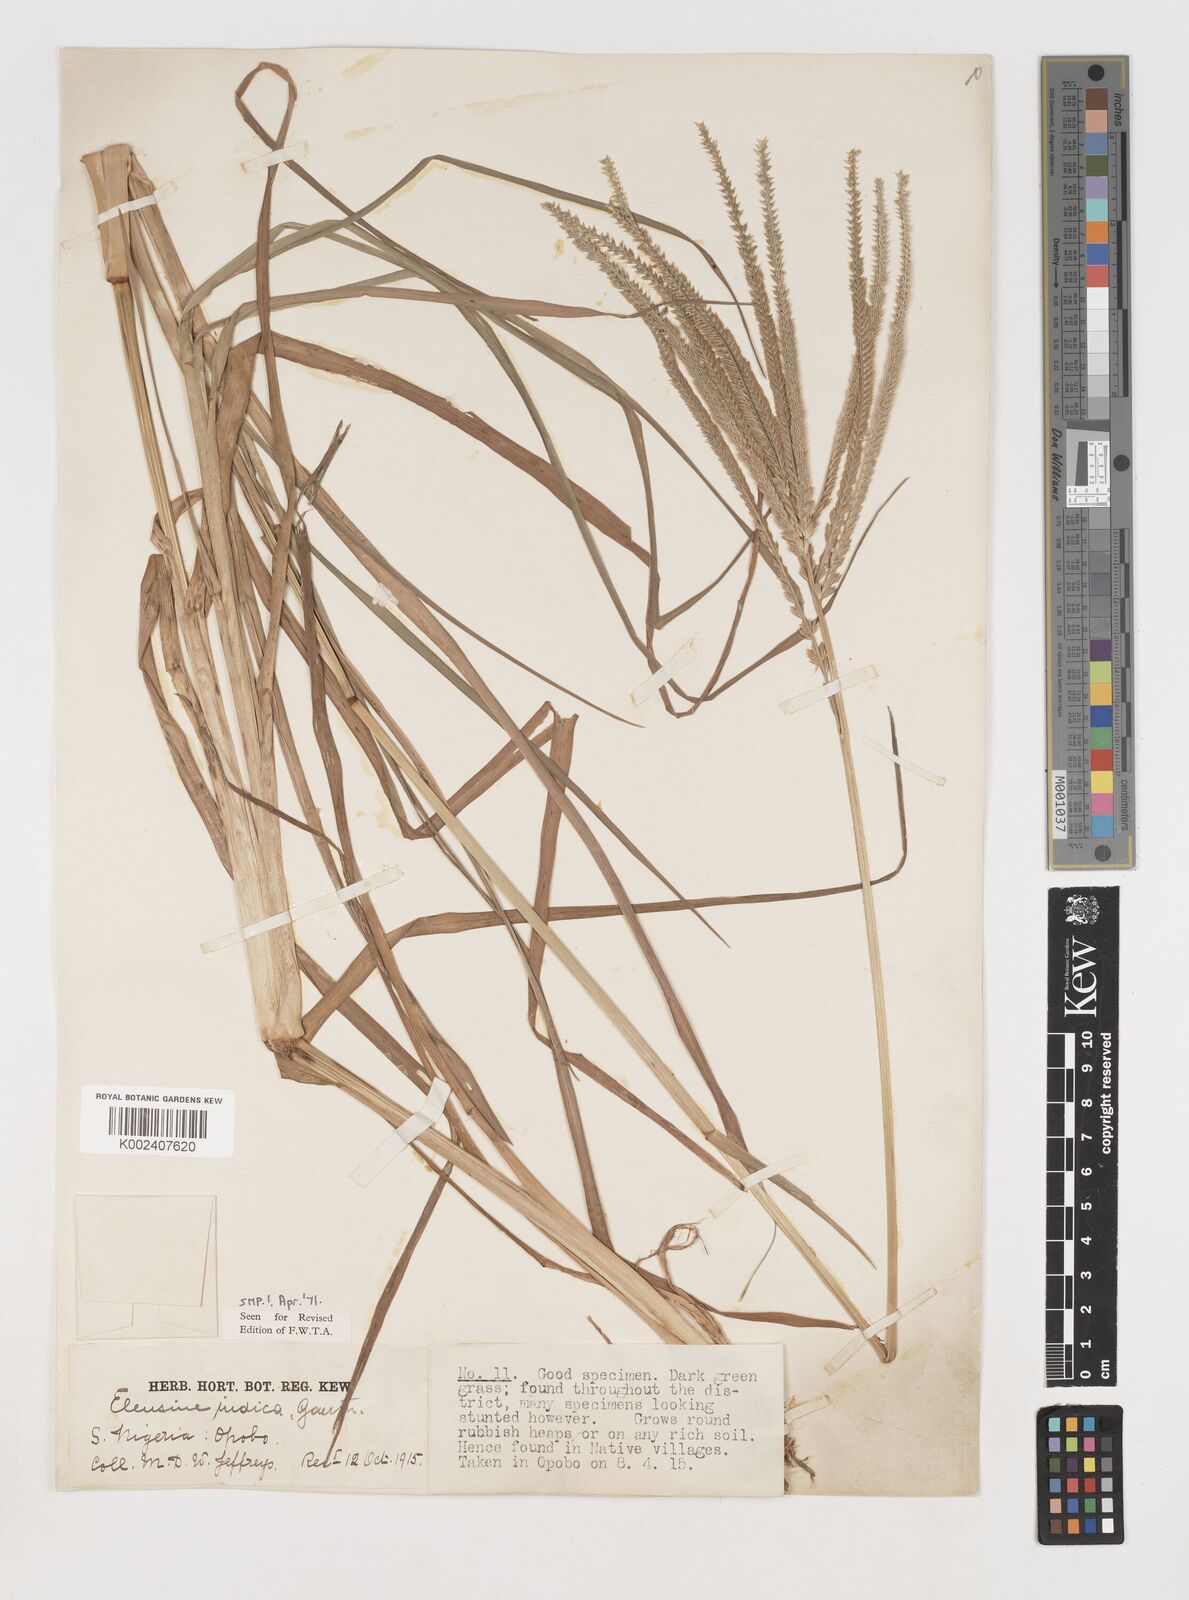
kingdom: Plantae
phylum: Tracheophyta
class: Liliopsida
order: Poales
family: Poaceae
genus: Eleusine
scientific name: Eleusine indica
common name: Yard-grass
